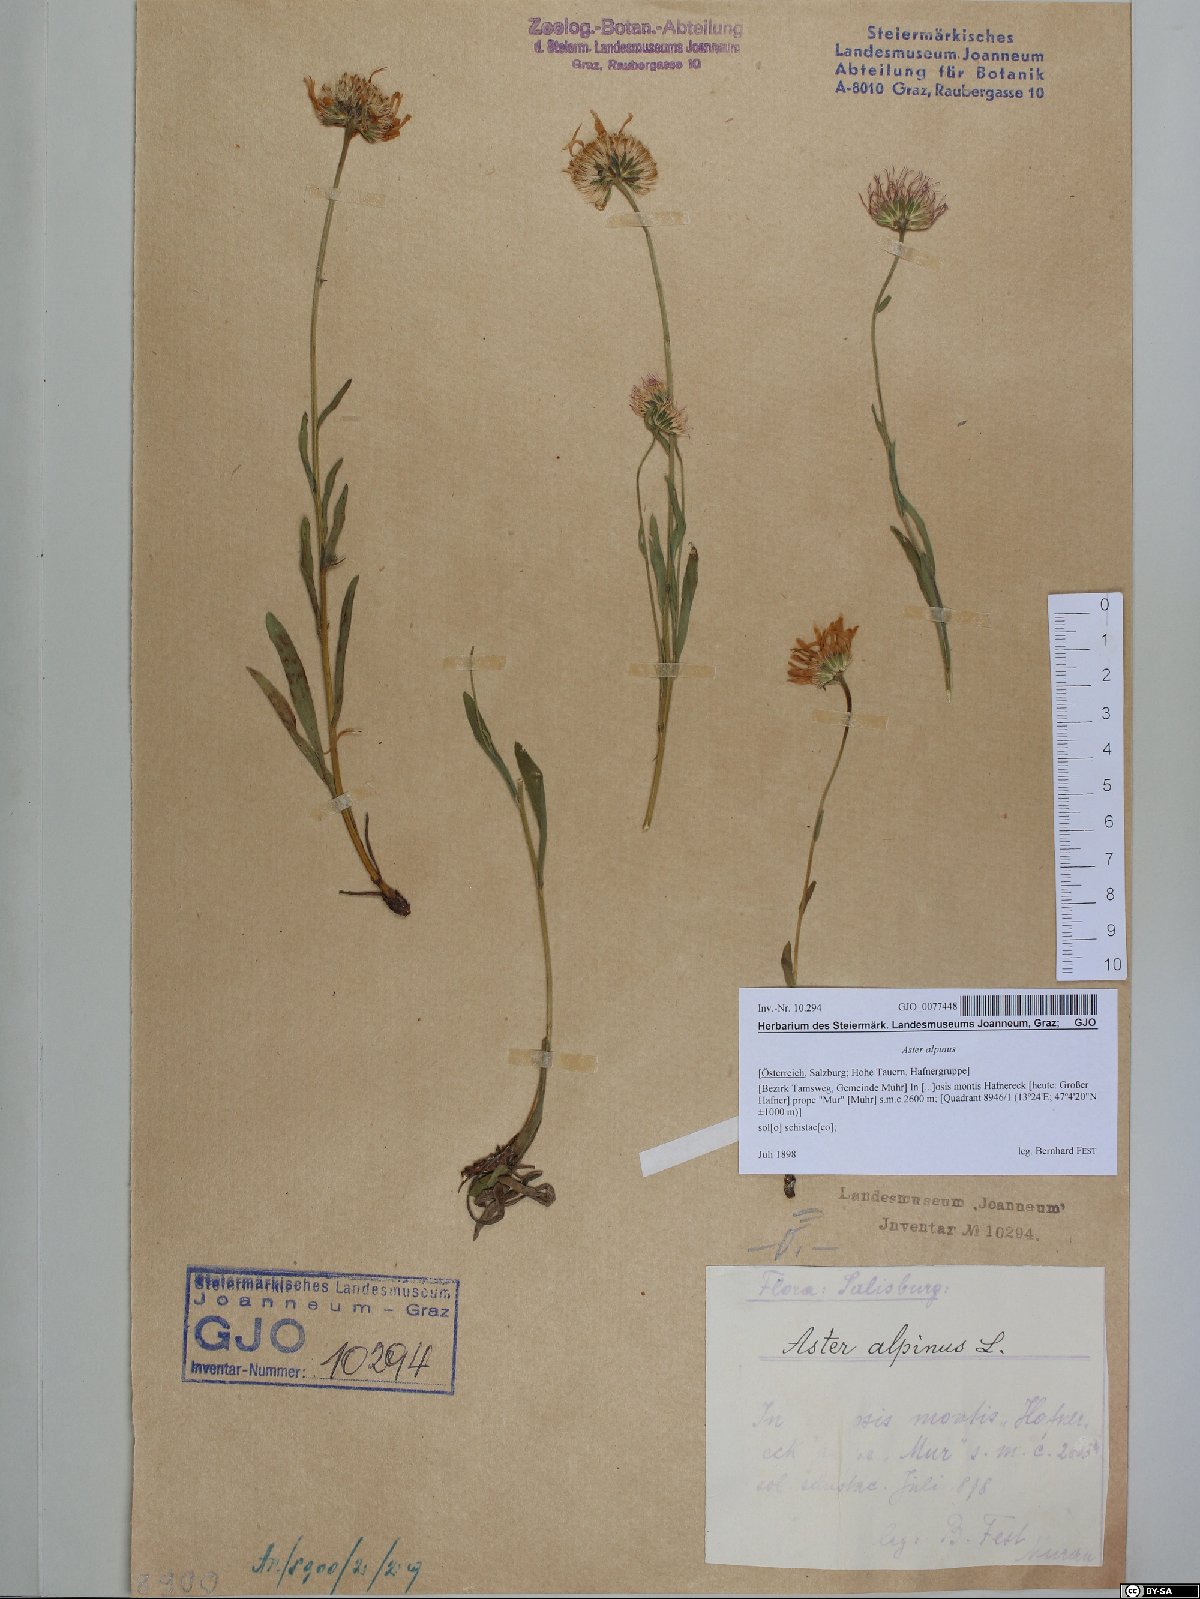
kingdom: Plantae
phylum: Tracheophyta
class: Magnoliopsida
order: Asterales
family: Asteraceae
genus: Aster
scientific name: Aster alpinus
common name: Alpine aster
